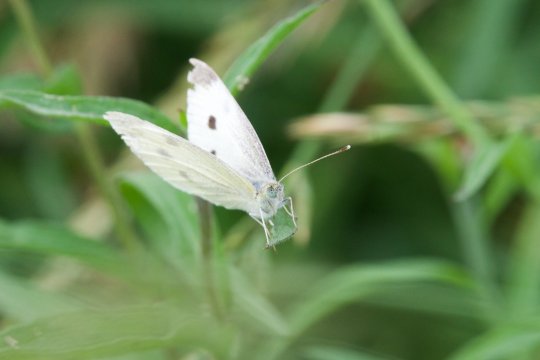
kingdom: Animalia
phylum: Arthropoda
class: Insecta
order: Lepidoptera
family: Pieridae
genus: Pieris
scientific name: Pieris rapae
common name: Cabbage White
